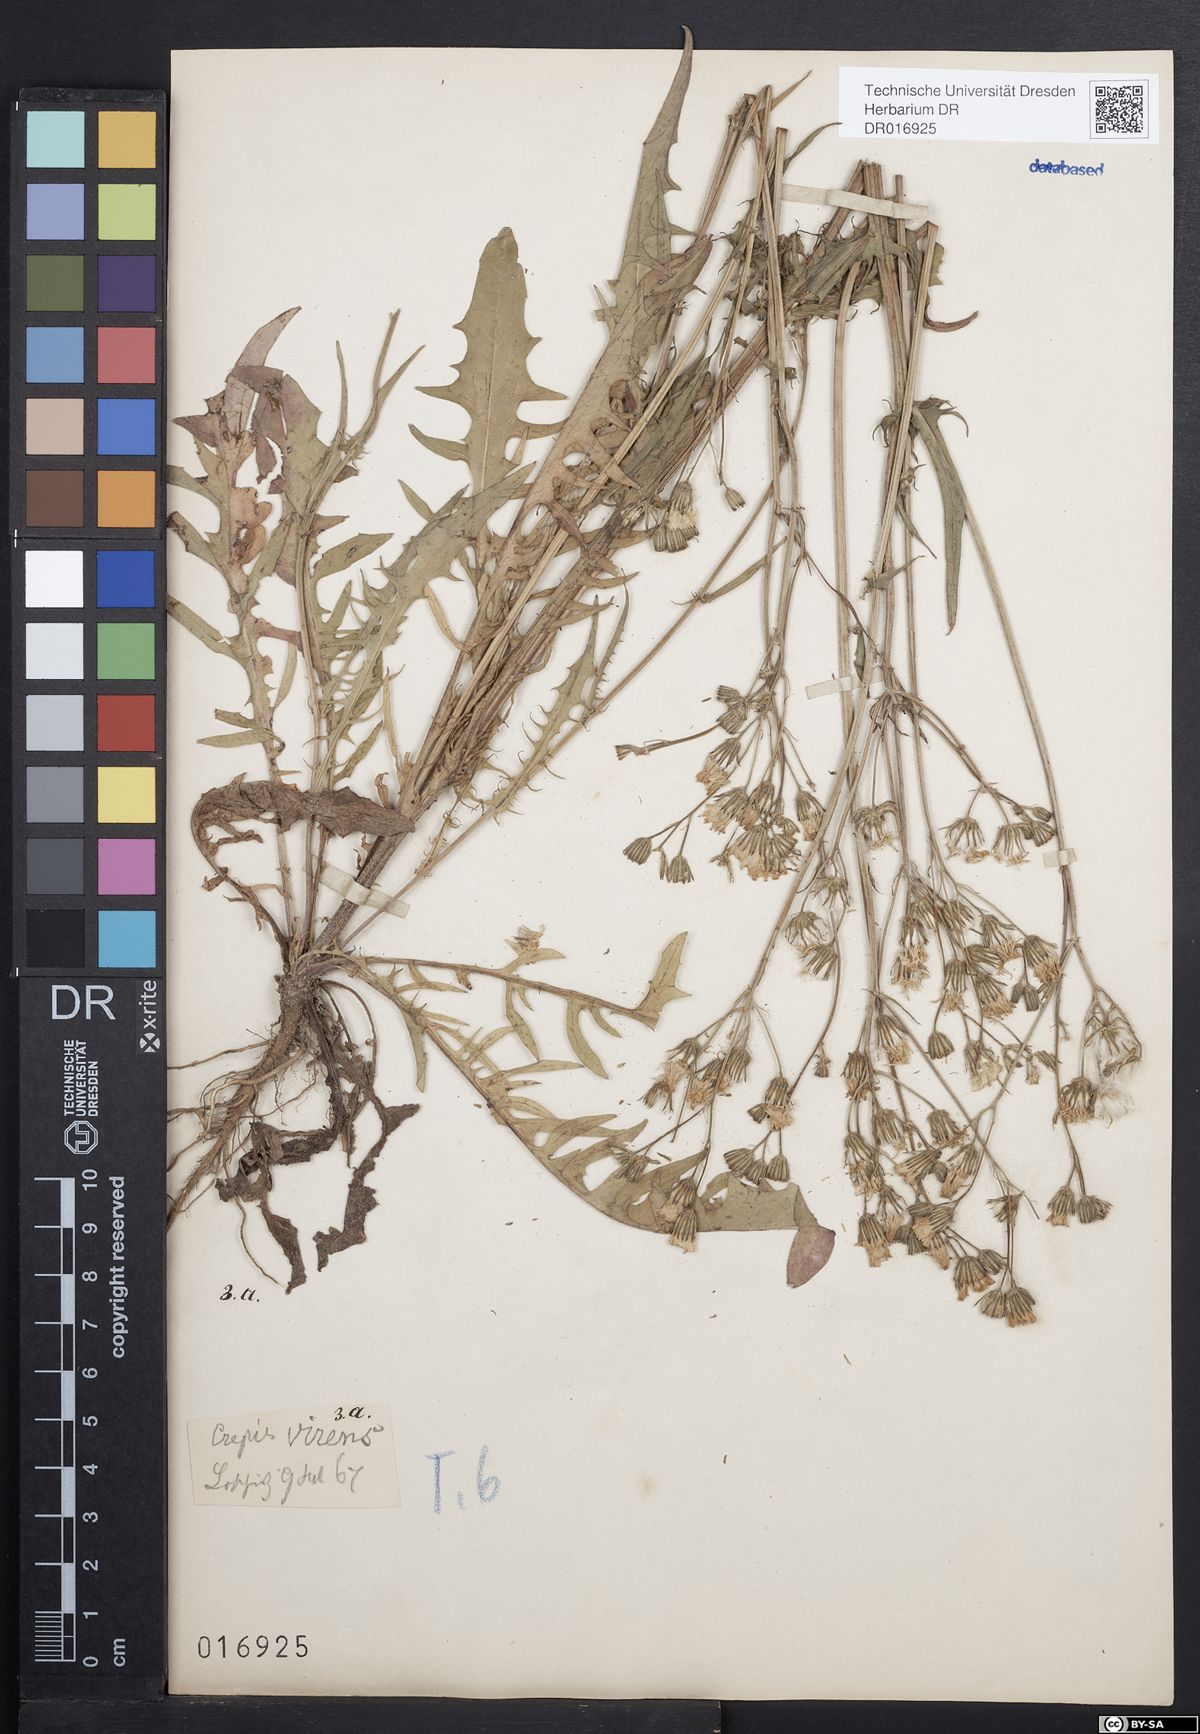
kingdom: Plantae
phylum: Tracheophyta
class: Magnoliopsida
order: Asterales
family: Asteraceae
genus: Crepis
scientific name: Crepis capillaris
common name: Smooth hawksbeard
